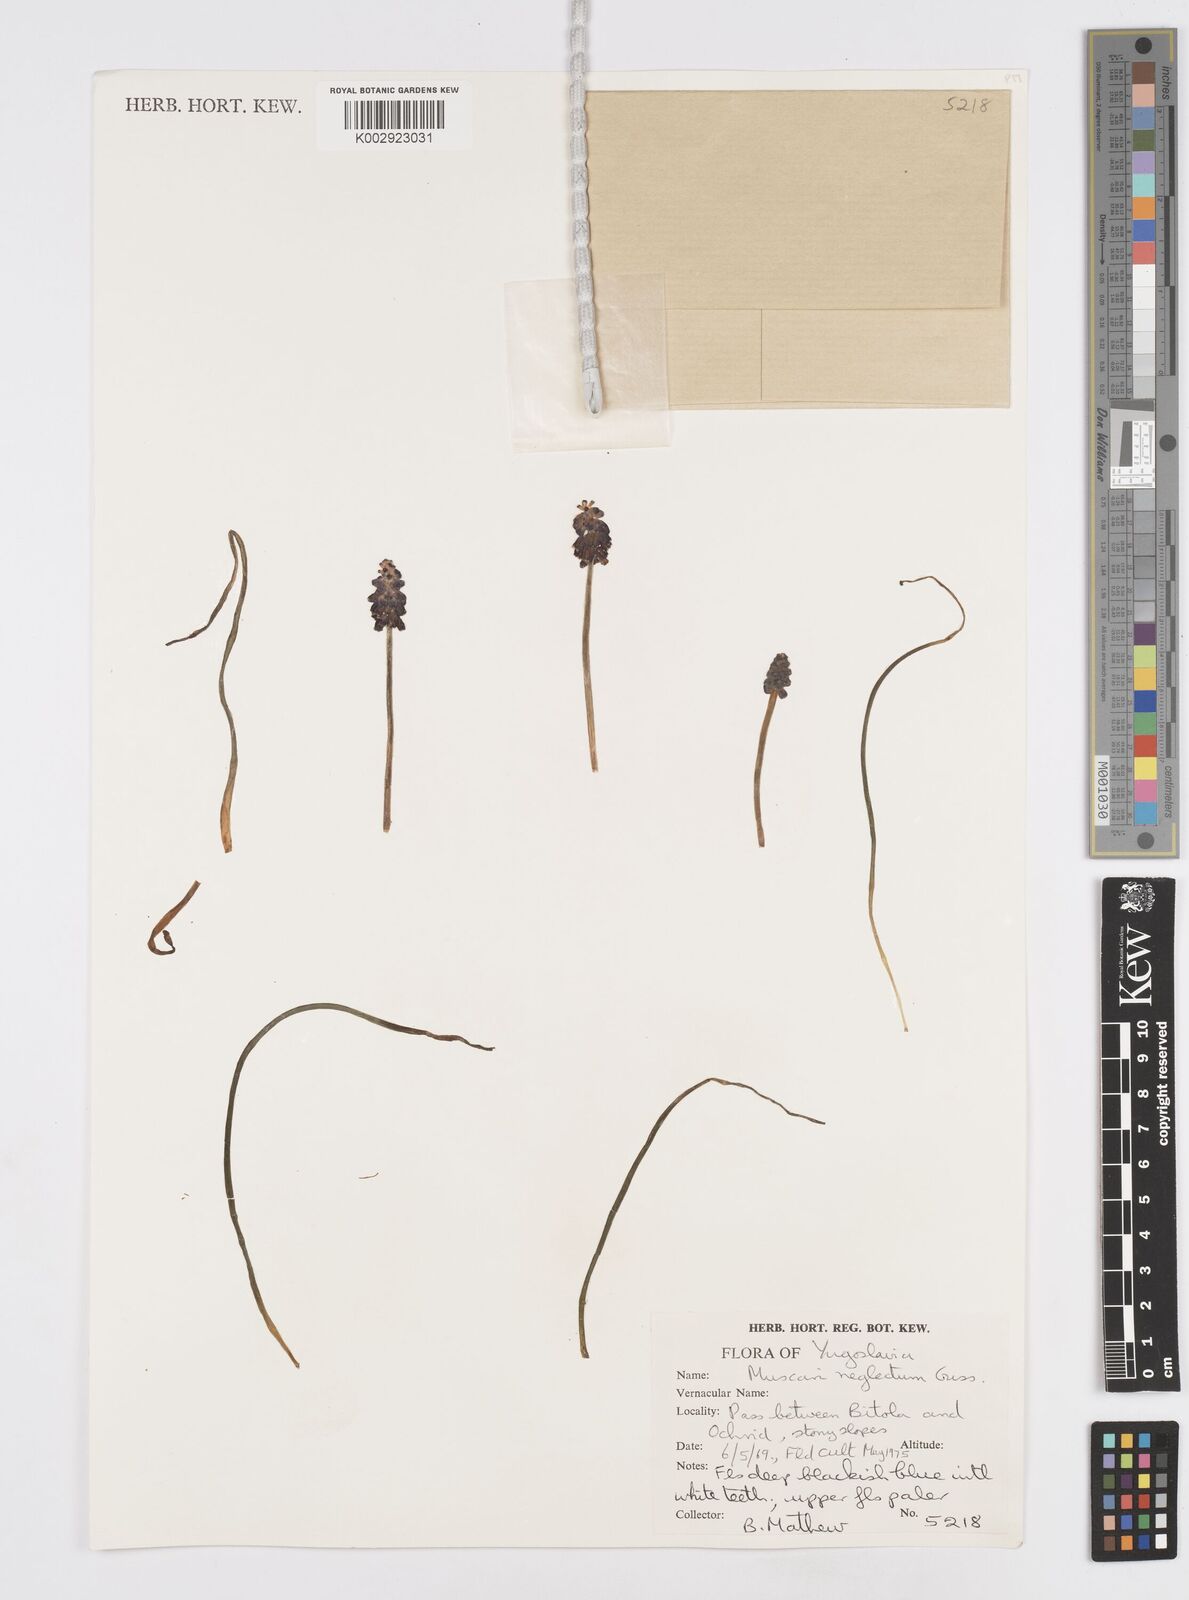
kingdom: Plantae
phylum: Tracheophyta
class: Liliopsida
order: Asparagales
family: Asparagaceae
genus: Muscari
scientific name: Muscari neglectum
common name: Grape-hyacinth
